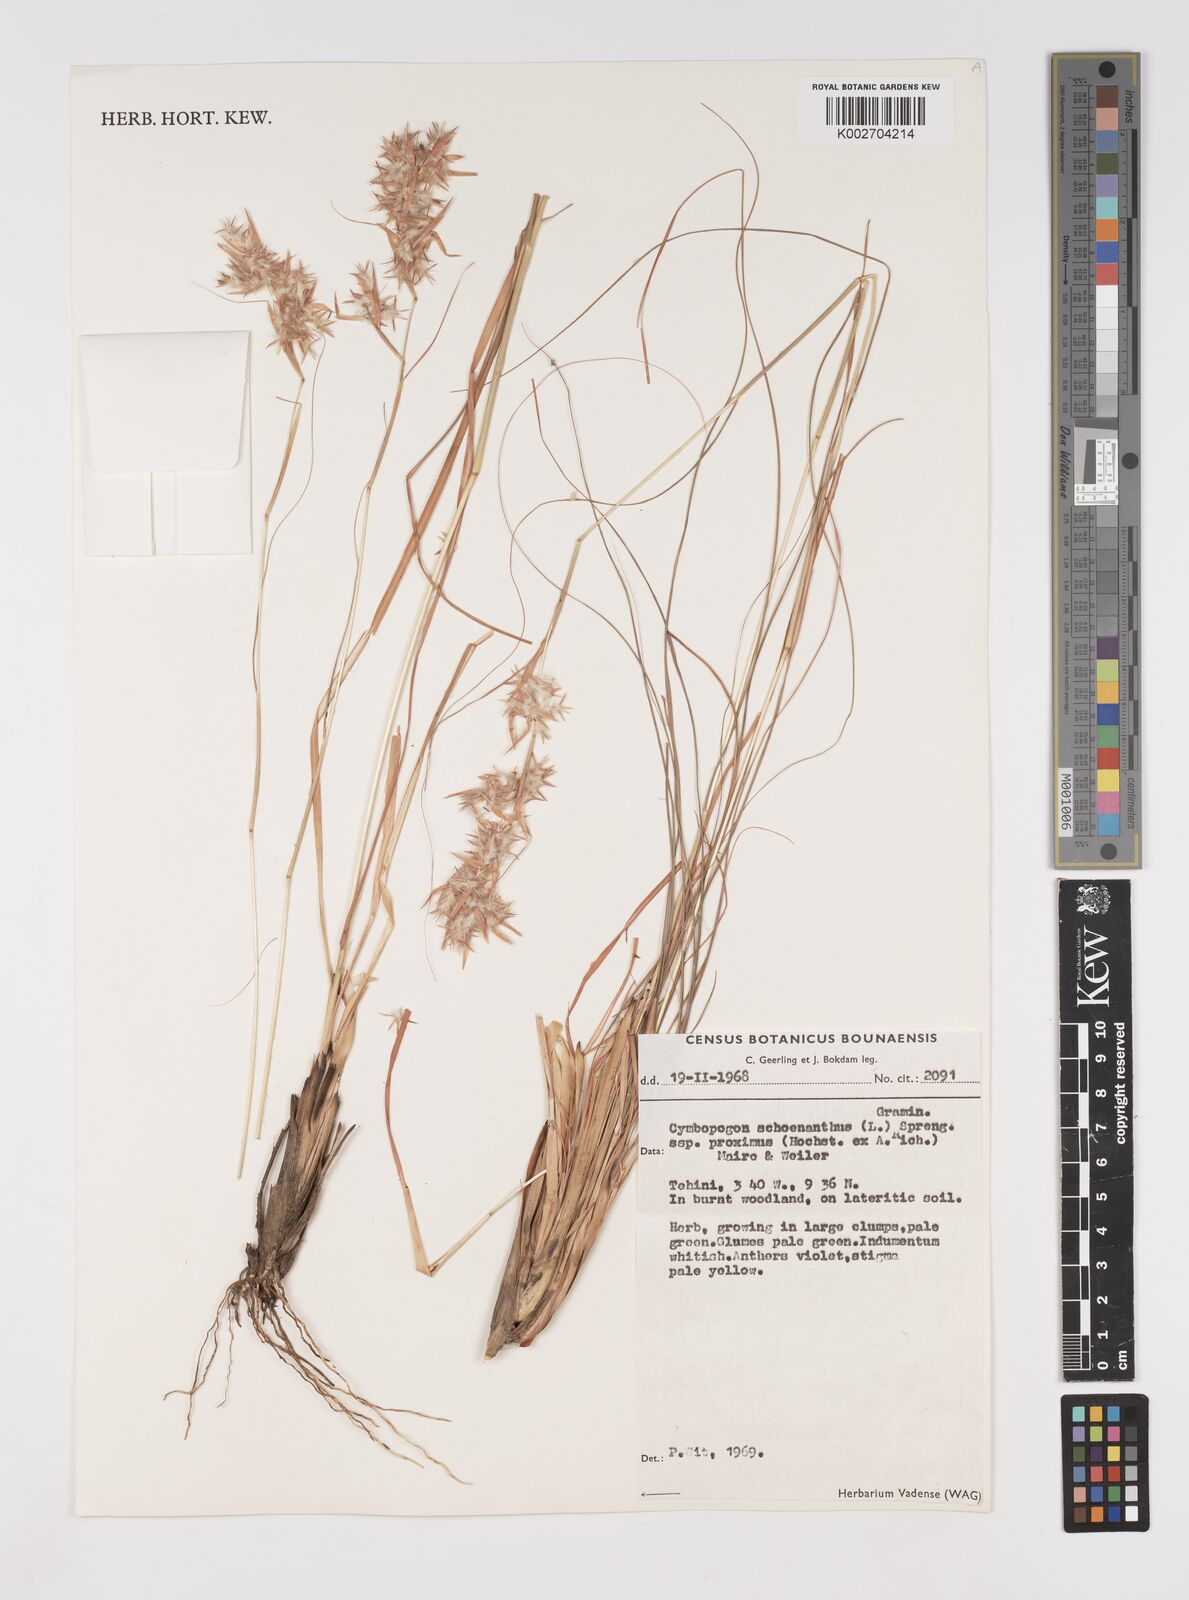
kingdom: Plantae
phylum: Tracheophyta
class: Liliopsida
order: Poales
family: Poaceae
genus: Cymbopogon
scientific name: Cymbopogon schoenanthus
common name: Geranium grass
